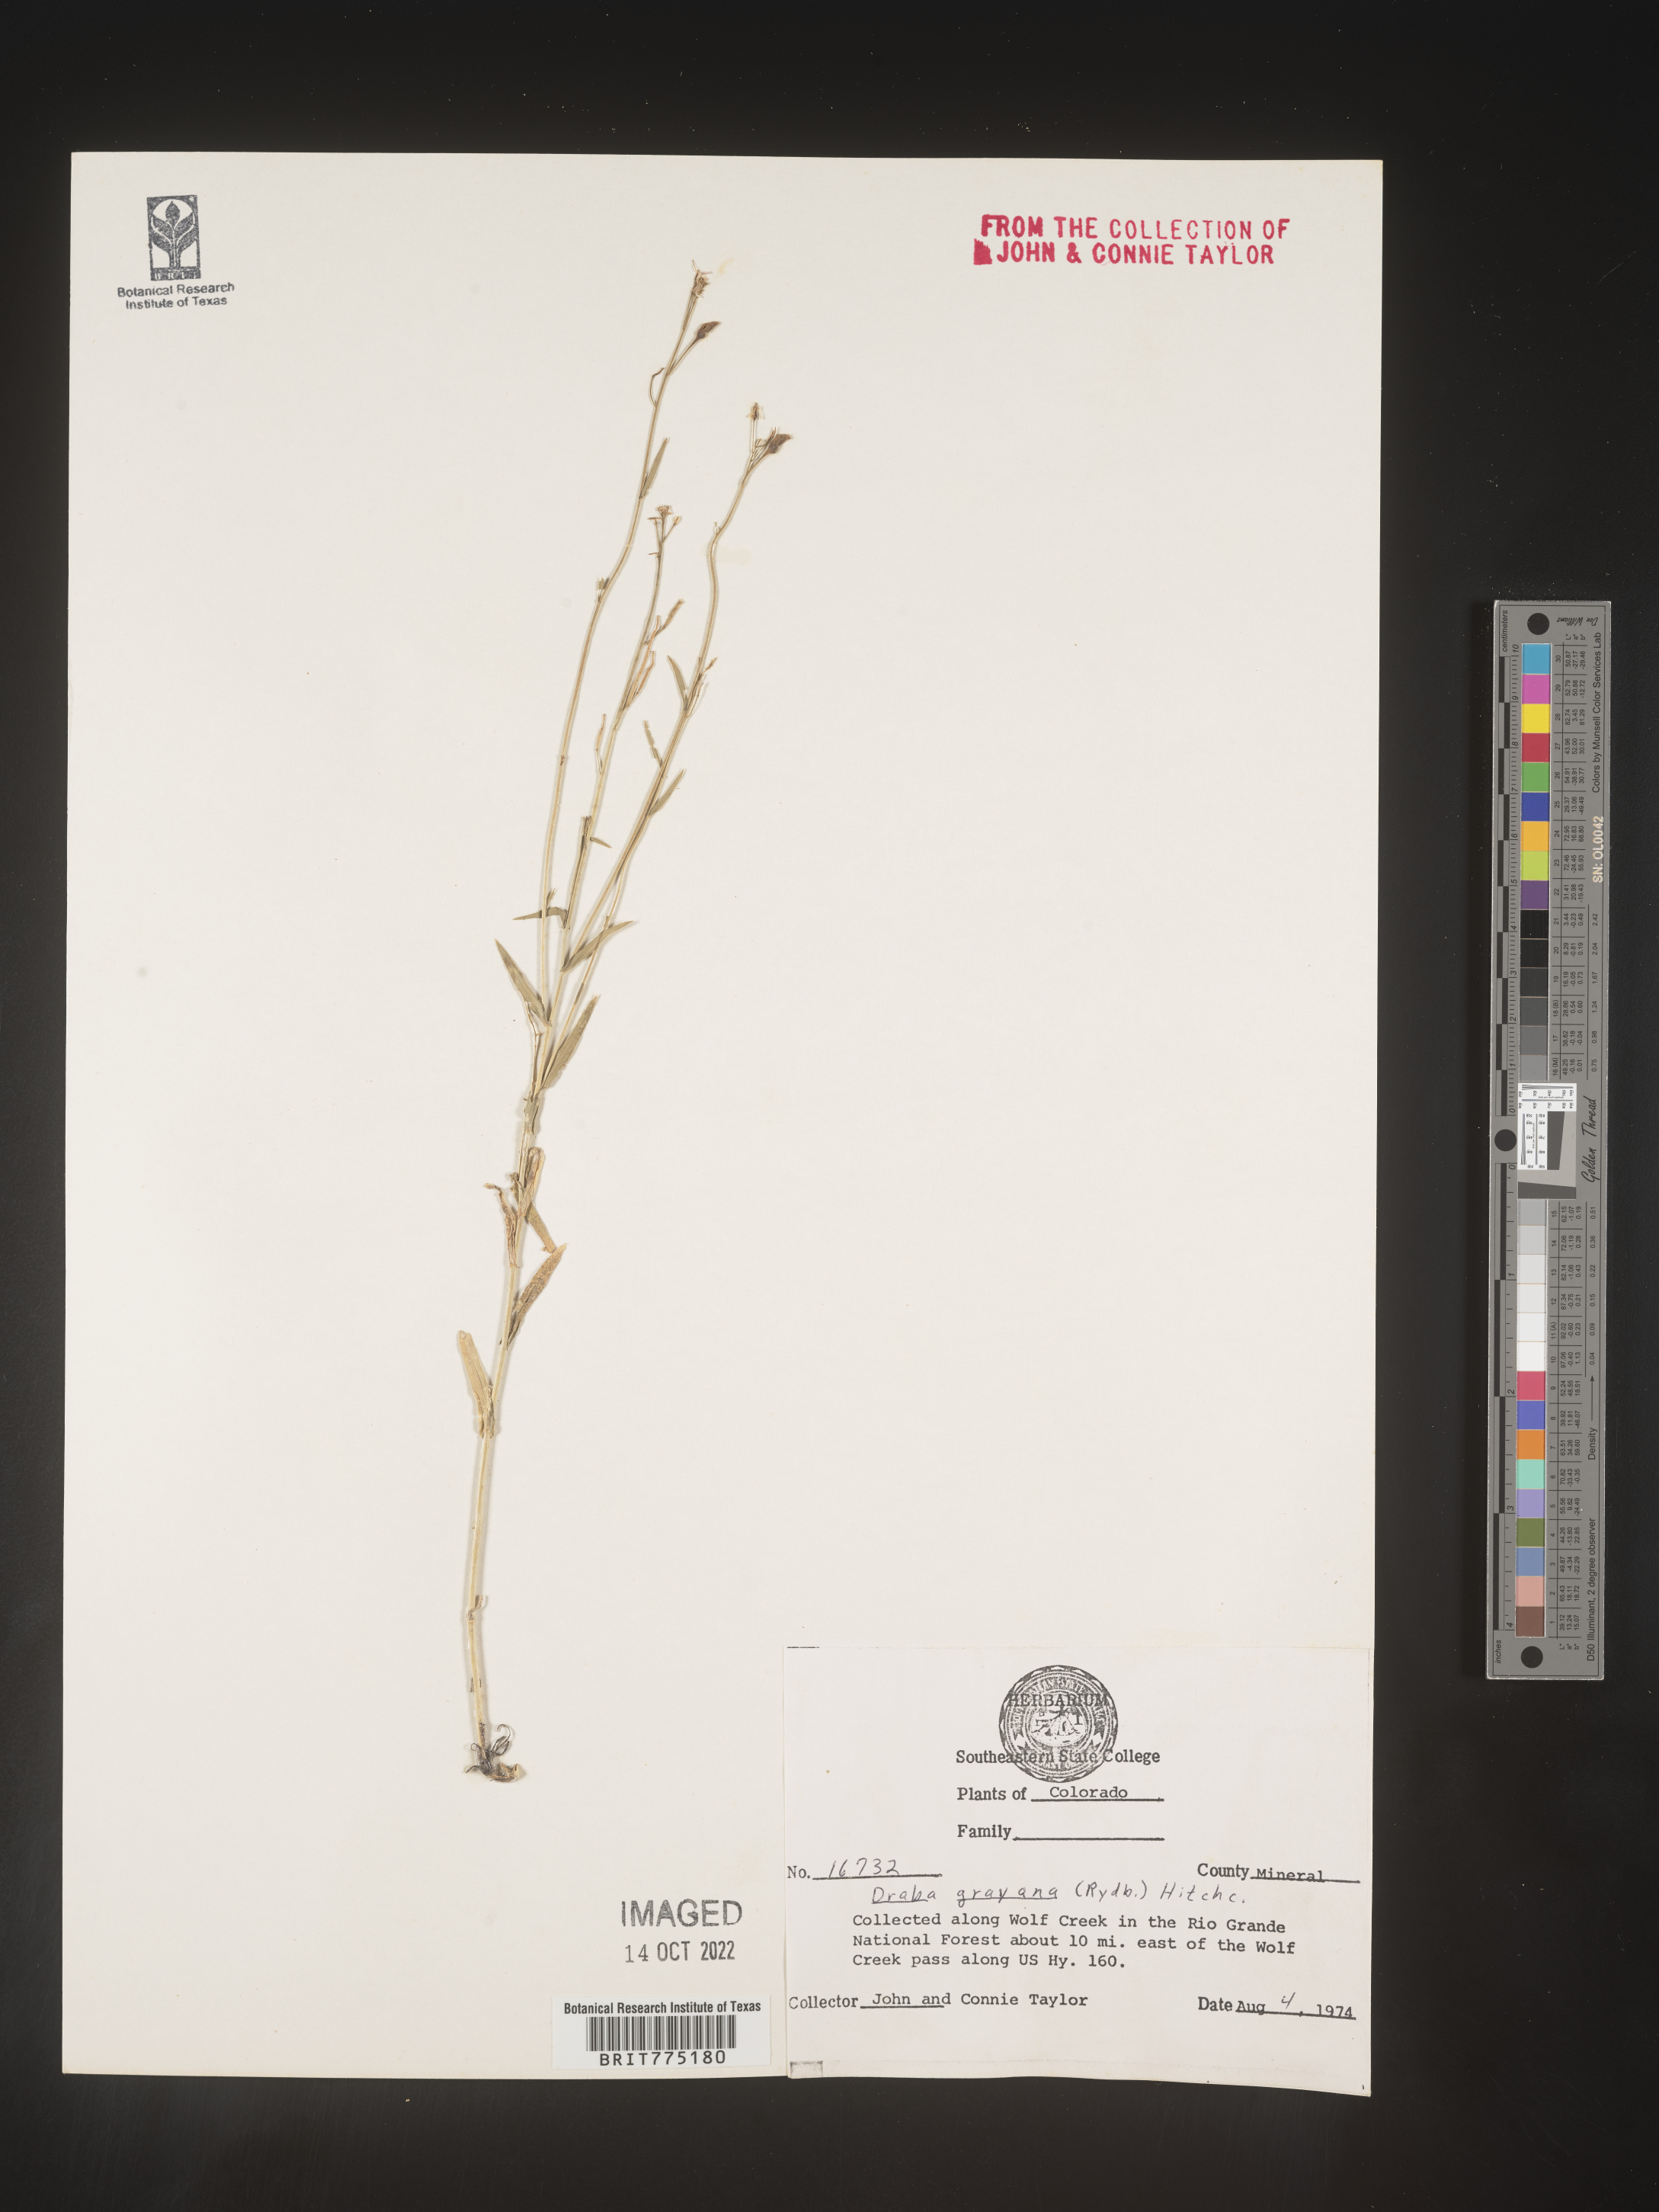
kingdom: Plantae
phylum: Tracheophyta
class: Magnoliopsida
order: Brassicales
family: Brassicaceae
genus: Draba
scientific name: Draba
